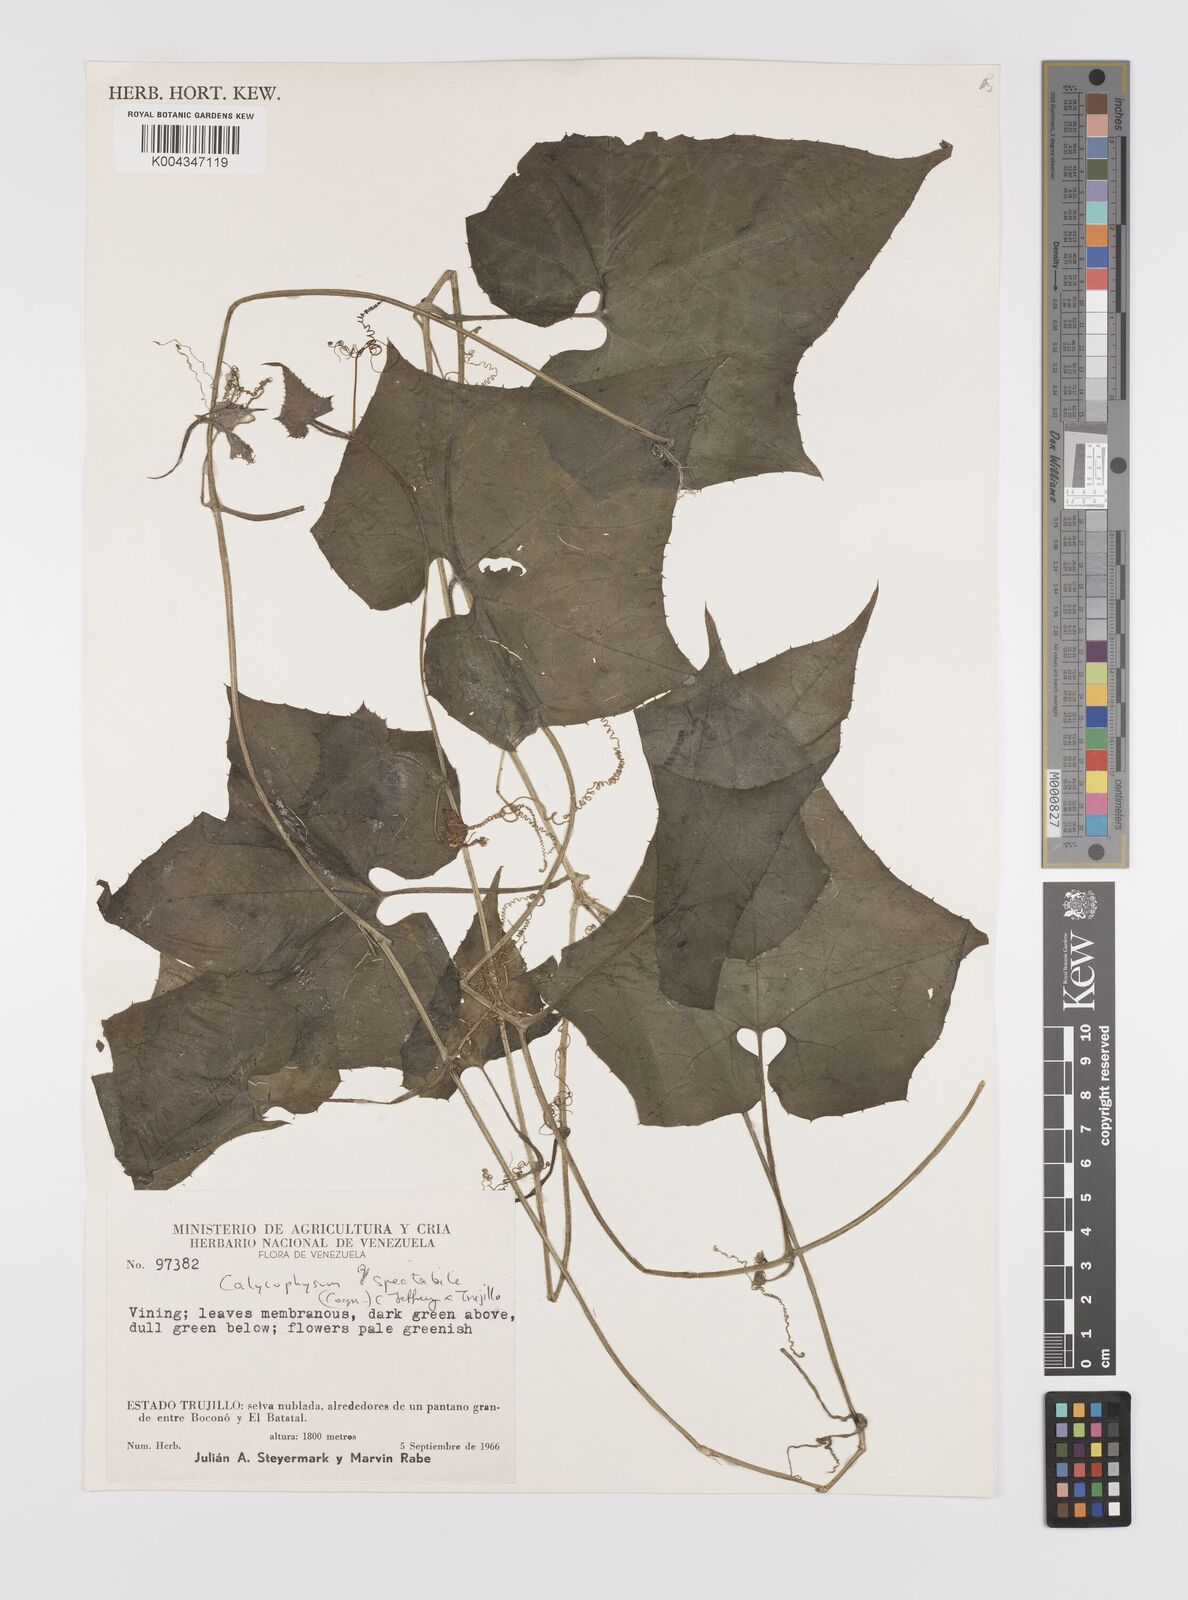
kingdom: Plantae
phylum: Tracheophyta
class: Magnoliopsida
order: Cucurbitales
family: Cucurbitaceae
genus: Calycophysum
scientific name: Calycophysum spectabile
